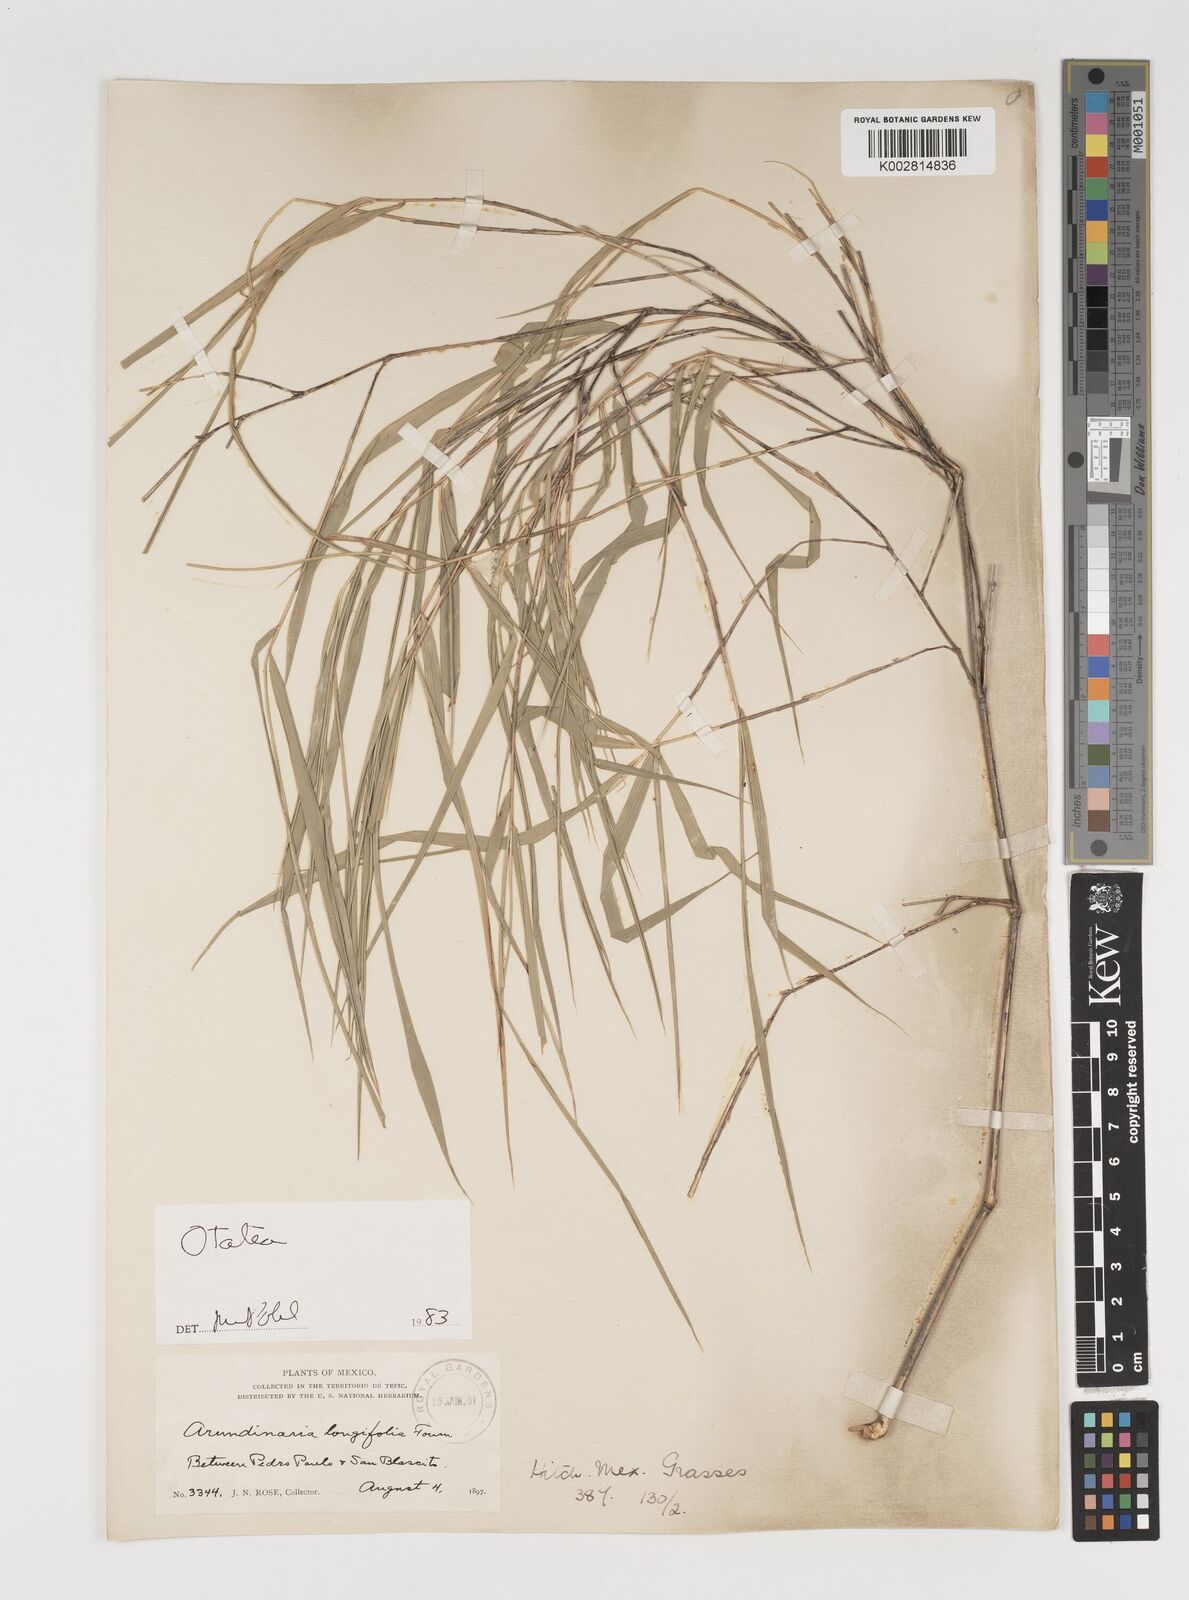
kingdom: Plantae
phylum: Tracheophyta
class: Liliopsida
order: Poales
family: Poaceae
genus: Olmeca
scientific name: Olmeca
